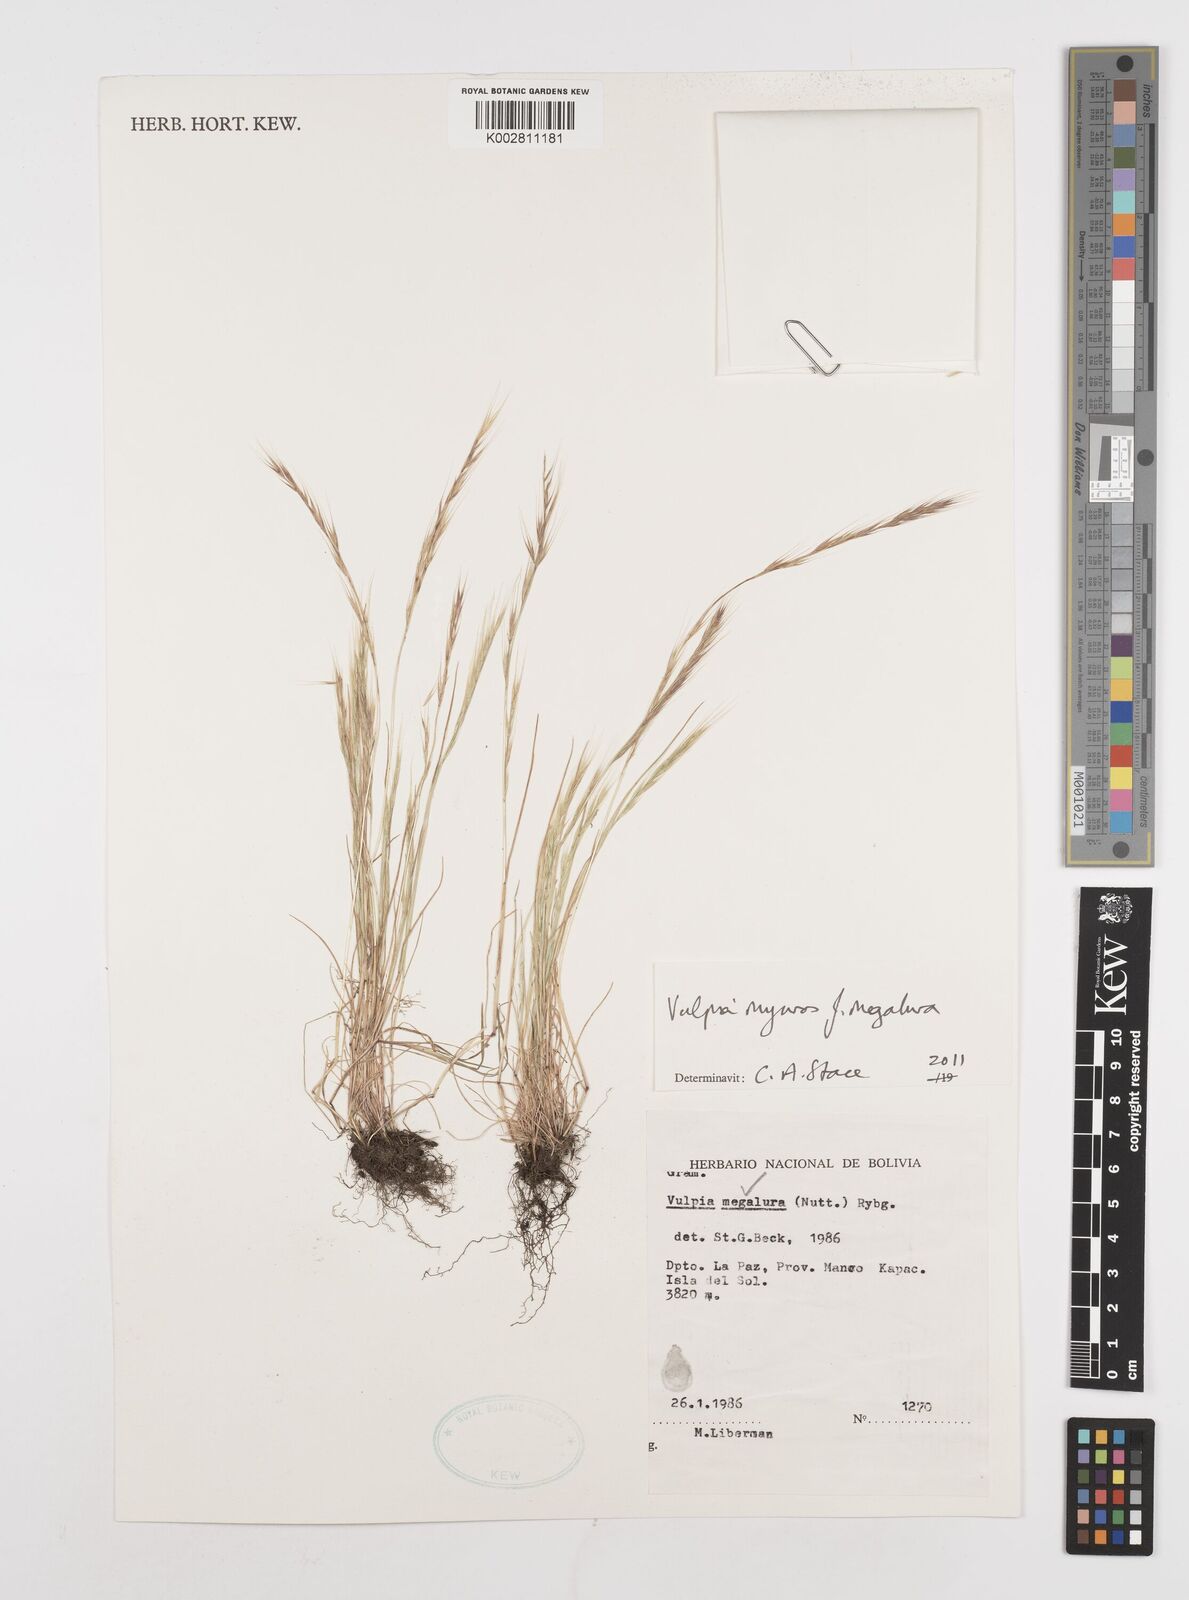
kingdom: Plantae
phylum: Tracheophyta
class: Liliopsida
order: Poales
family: Poaceae
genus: Festuca
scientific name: Festuca myuros
